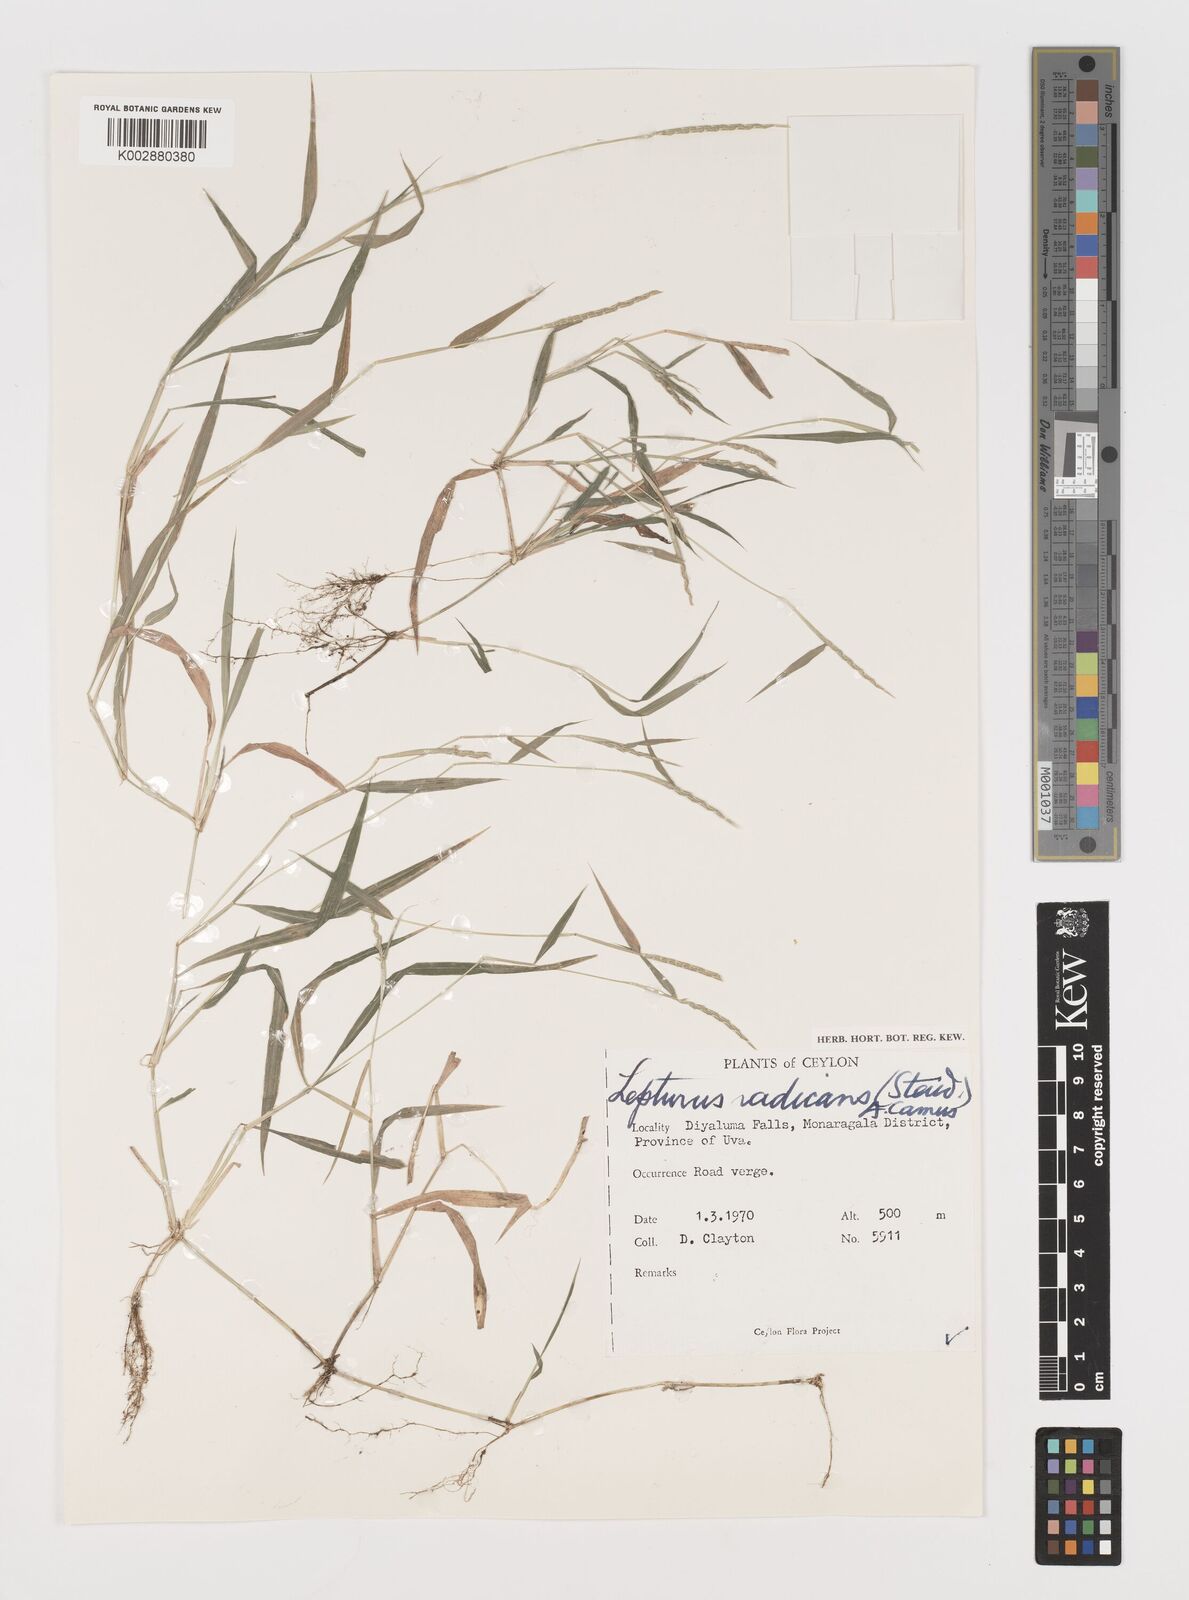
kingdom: Plantae
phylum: Tracheophyta
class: Liliopsida
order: Poales
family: Poaceae
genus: Lepturus
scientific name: Lepturus radicans
